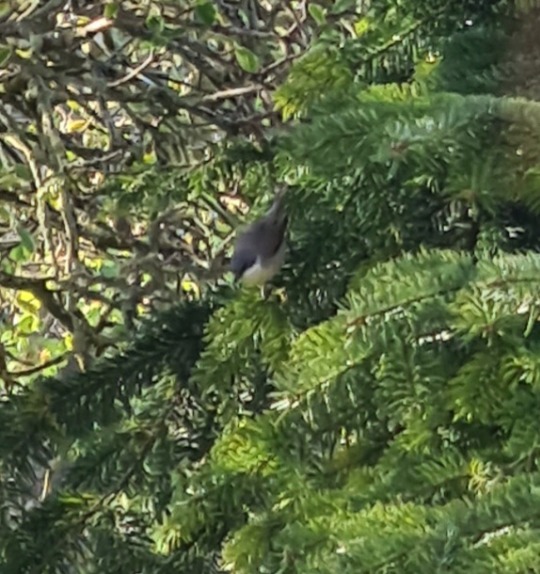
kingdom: Animalia
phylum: Chordata
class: Aves
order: Passeriformes
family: Sylviidae
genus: Sylvia
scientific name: Sylvia curruca
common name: Gærdesanger
